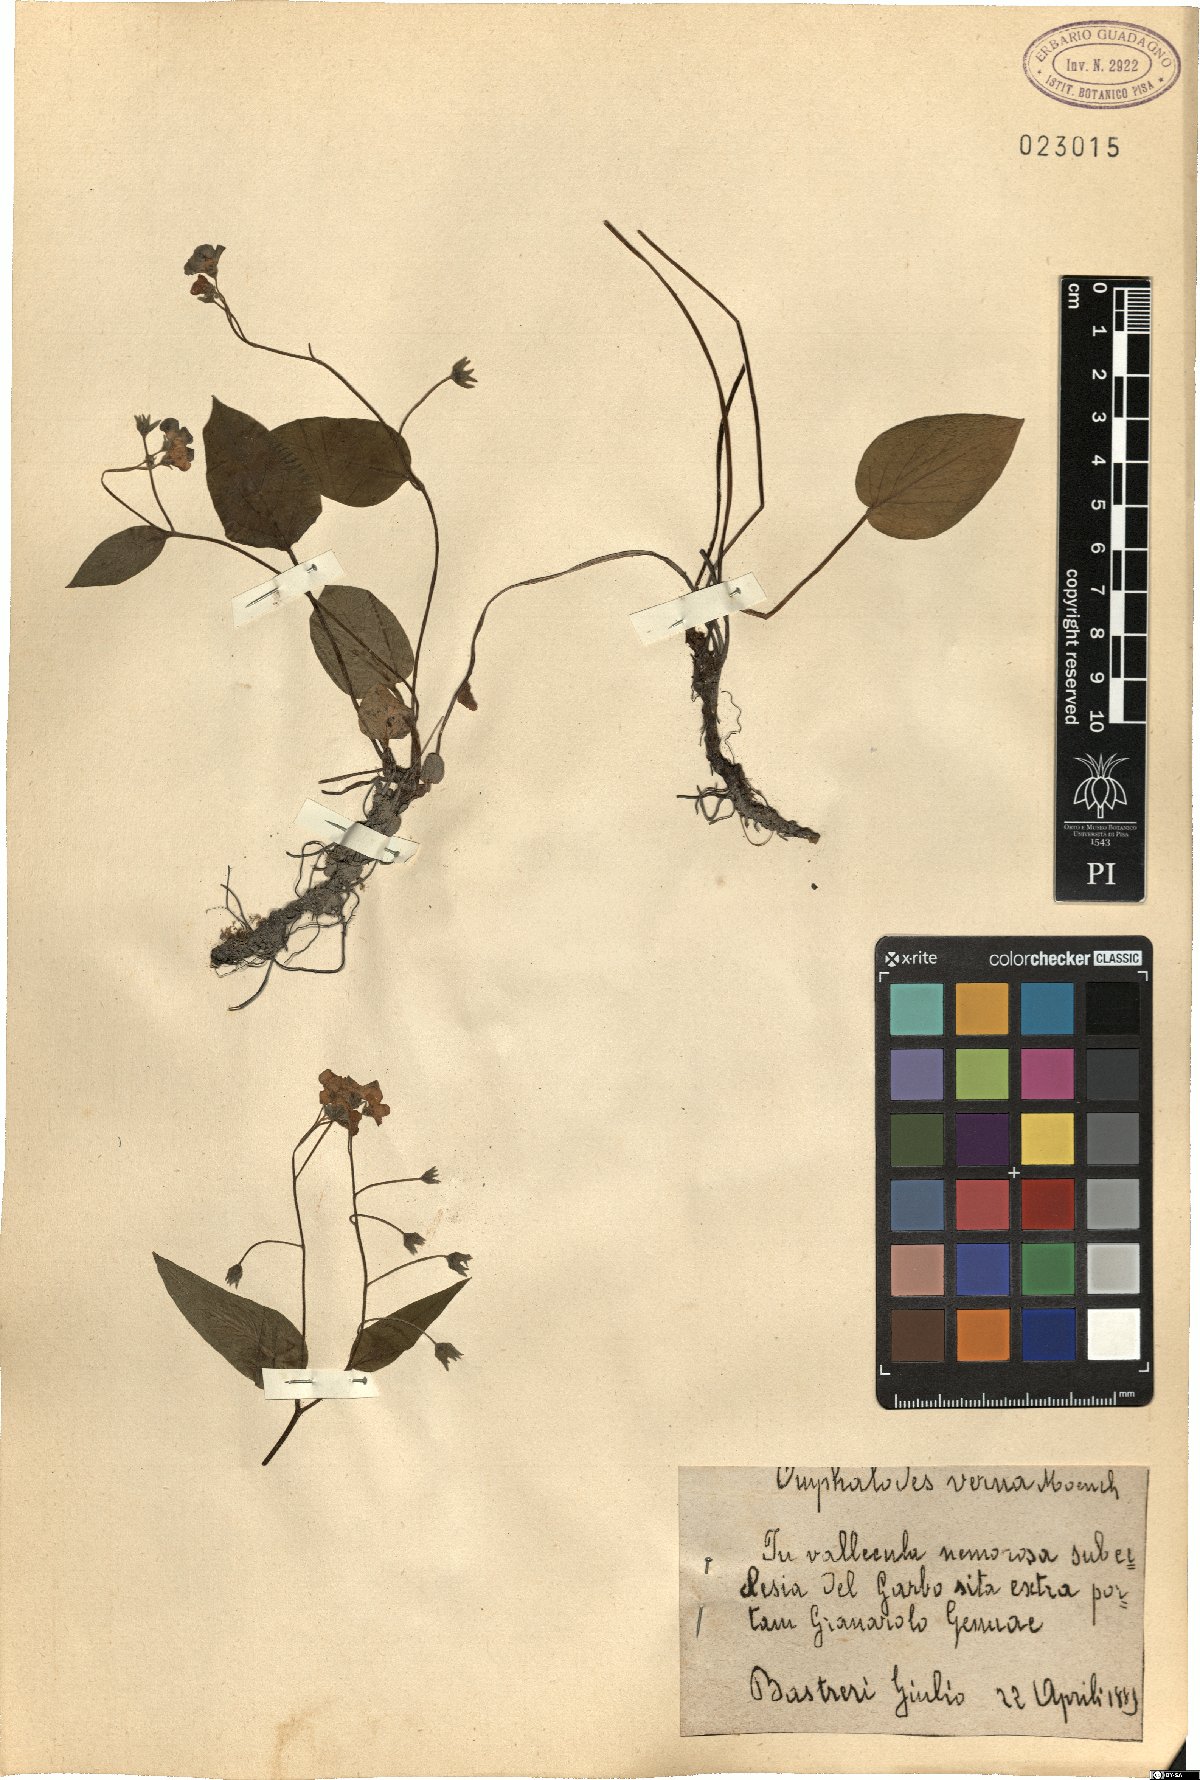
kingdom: Plantae
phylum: Tracheophyta
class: Magnoliopsida
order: Boraginales
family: Boraginaceae
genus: Omphalodes
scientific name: Omphalodes verna
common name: Blue-eyed-mary
